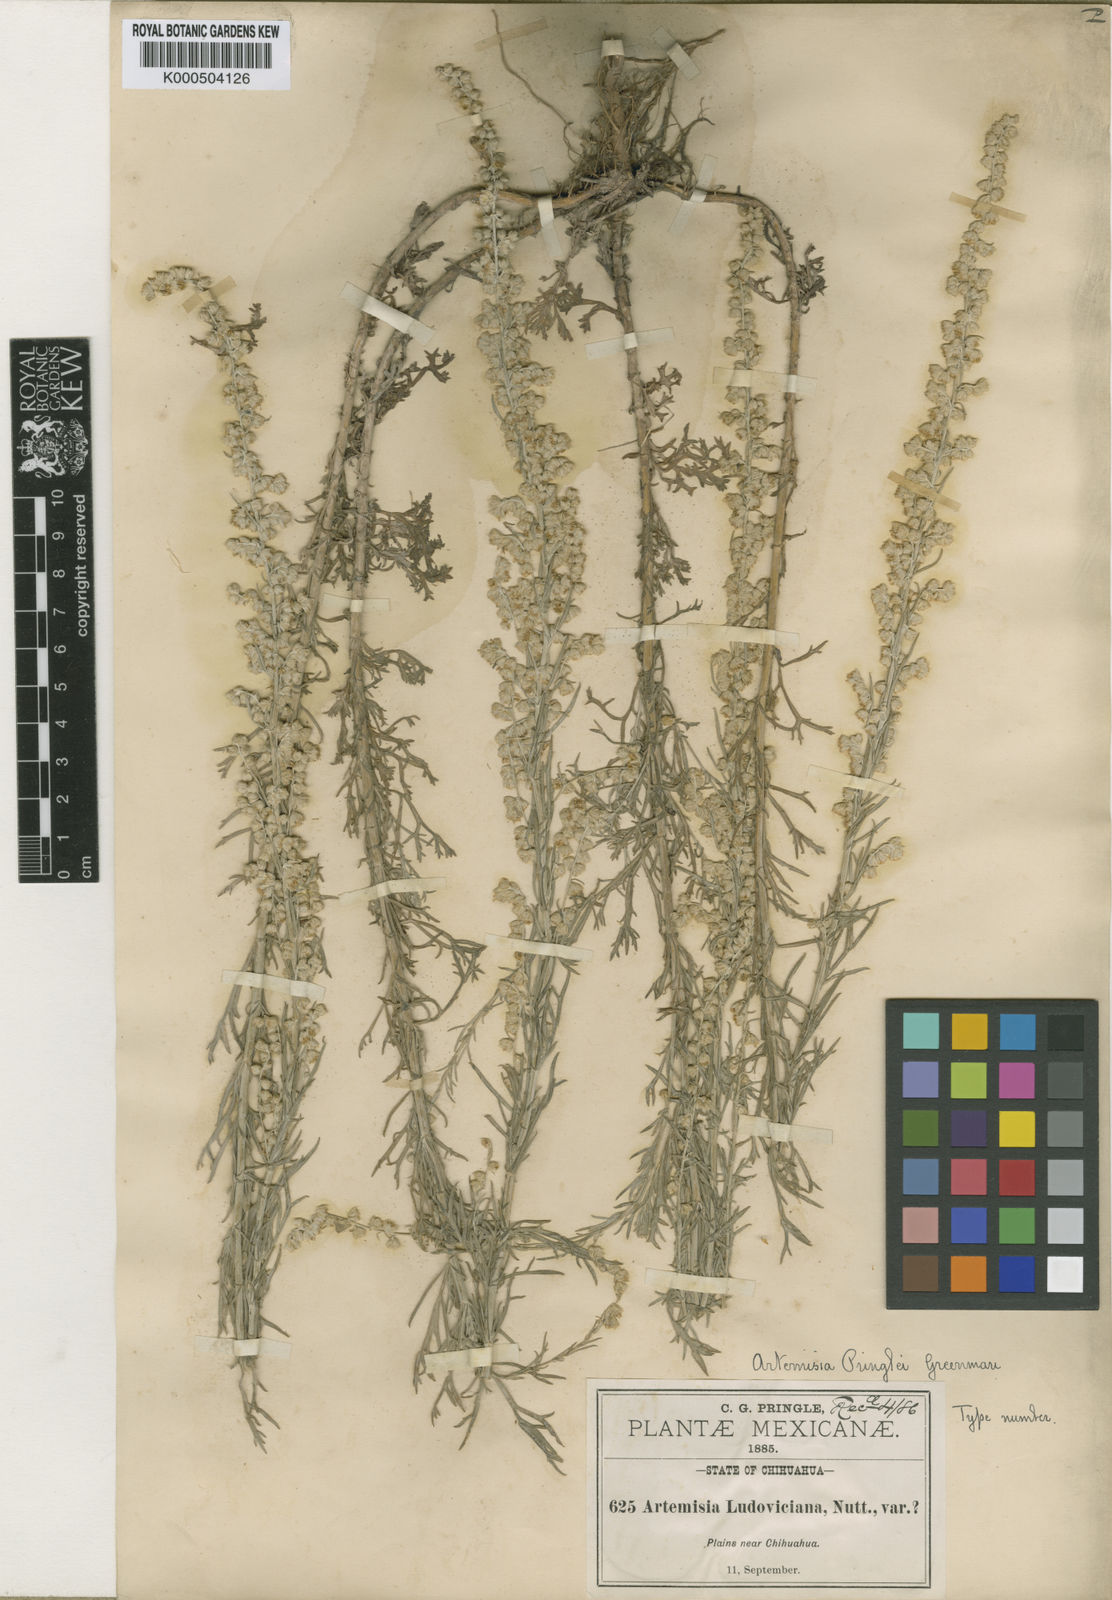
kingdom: Plantae
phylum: Tracheophyta
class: Magnoliopsida
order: Asterales
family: Asteraceae
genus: Artemisia
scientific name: Artemisia tilesii
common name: Aleutian mugwort
